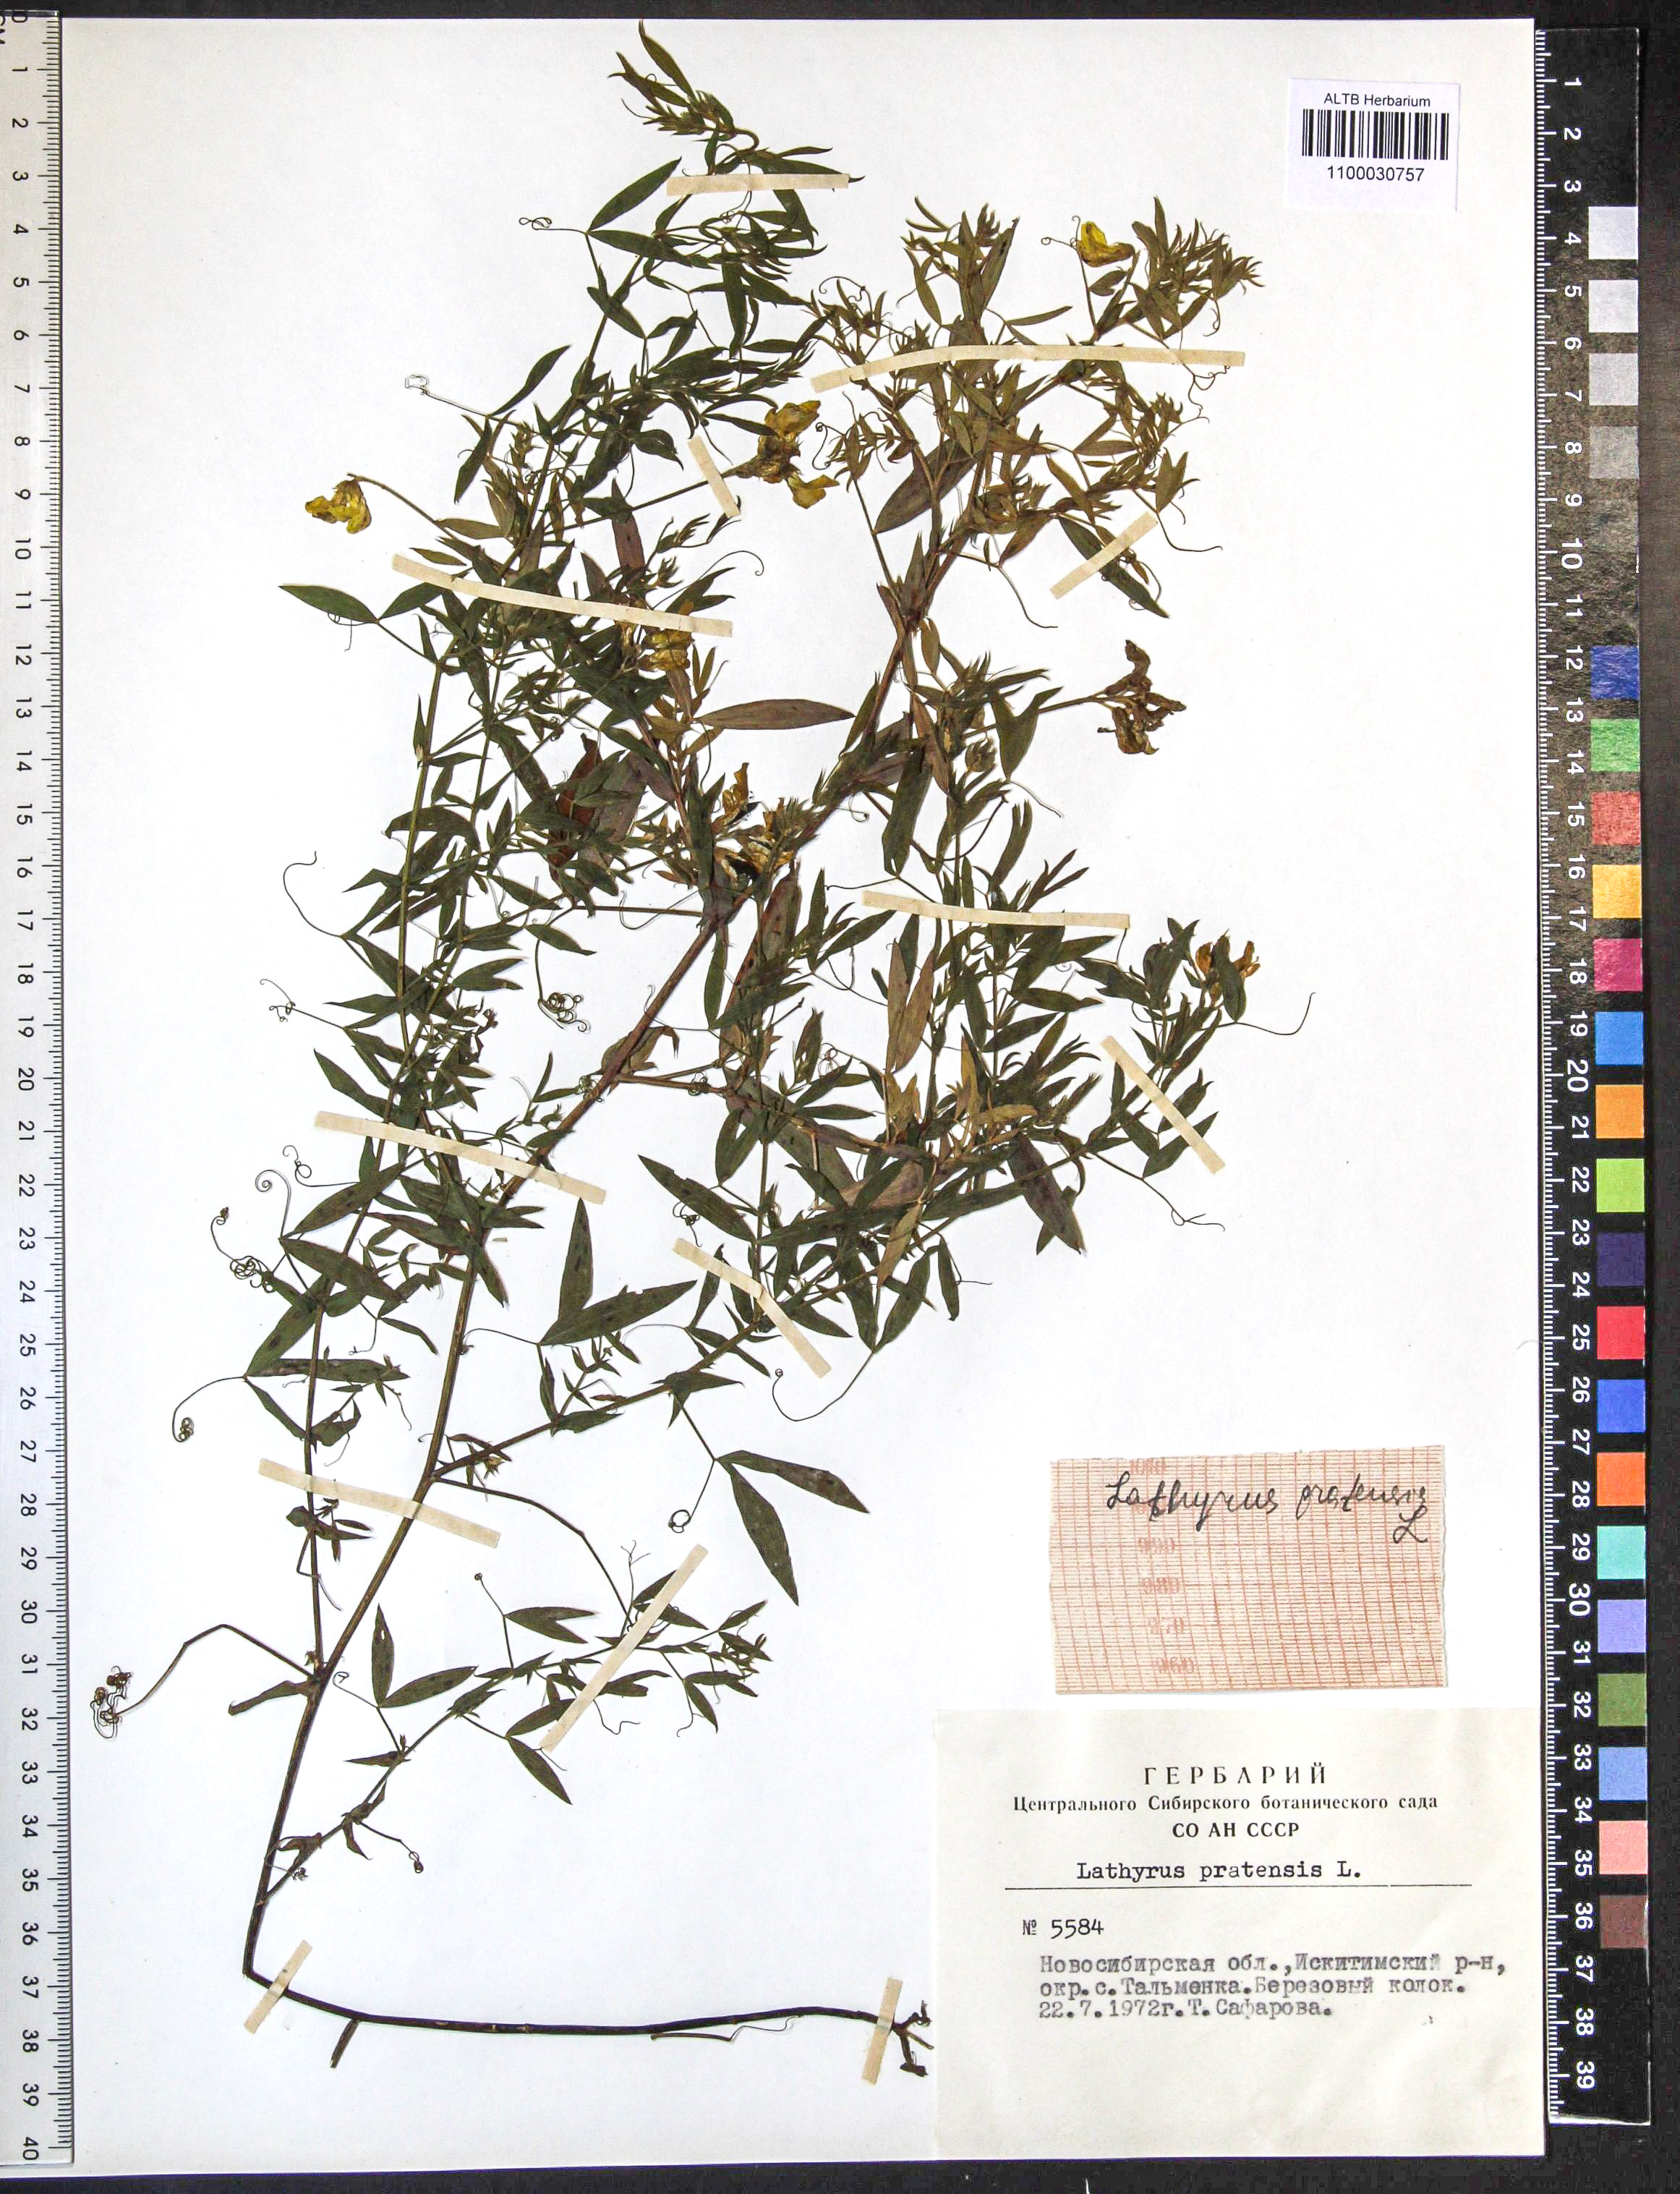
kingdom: Plantae
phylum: Tracheophyta
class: Magnoliopsida
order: Fabales
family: Fabaceae
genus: Lathyrus
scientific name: Lathyrus pratensis
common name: Meadow vetchling
